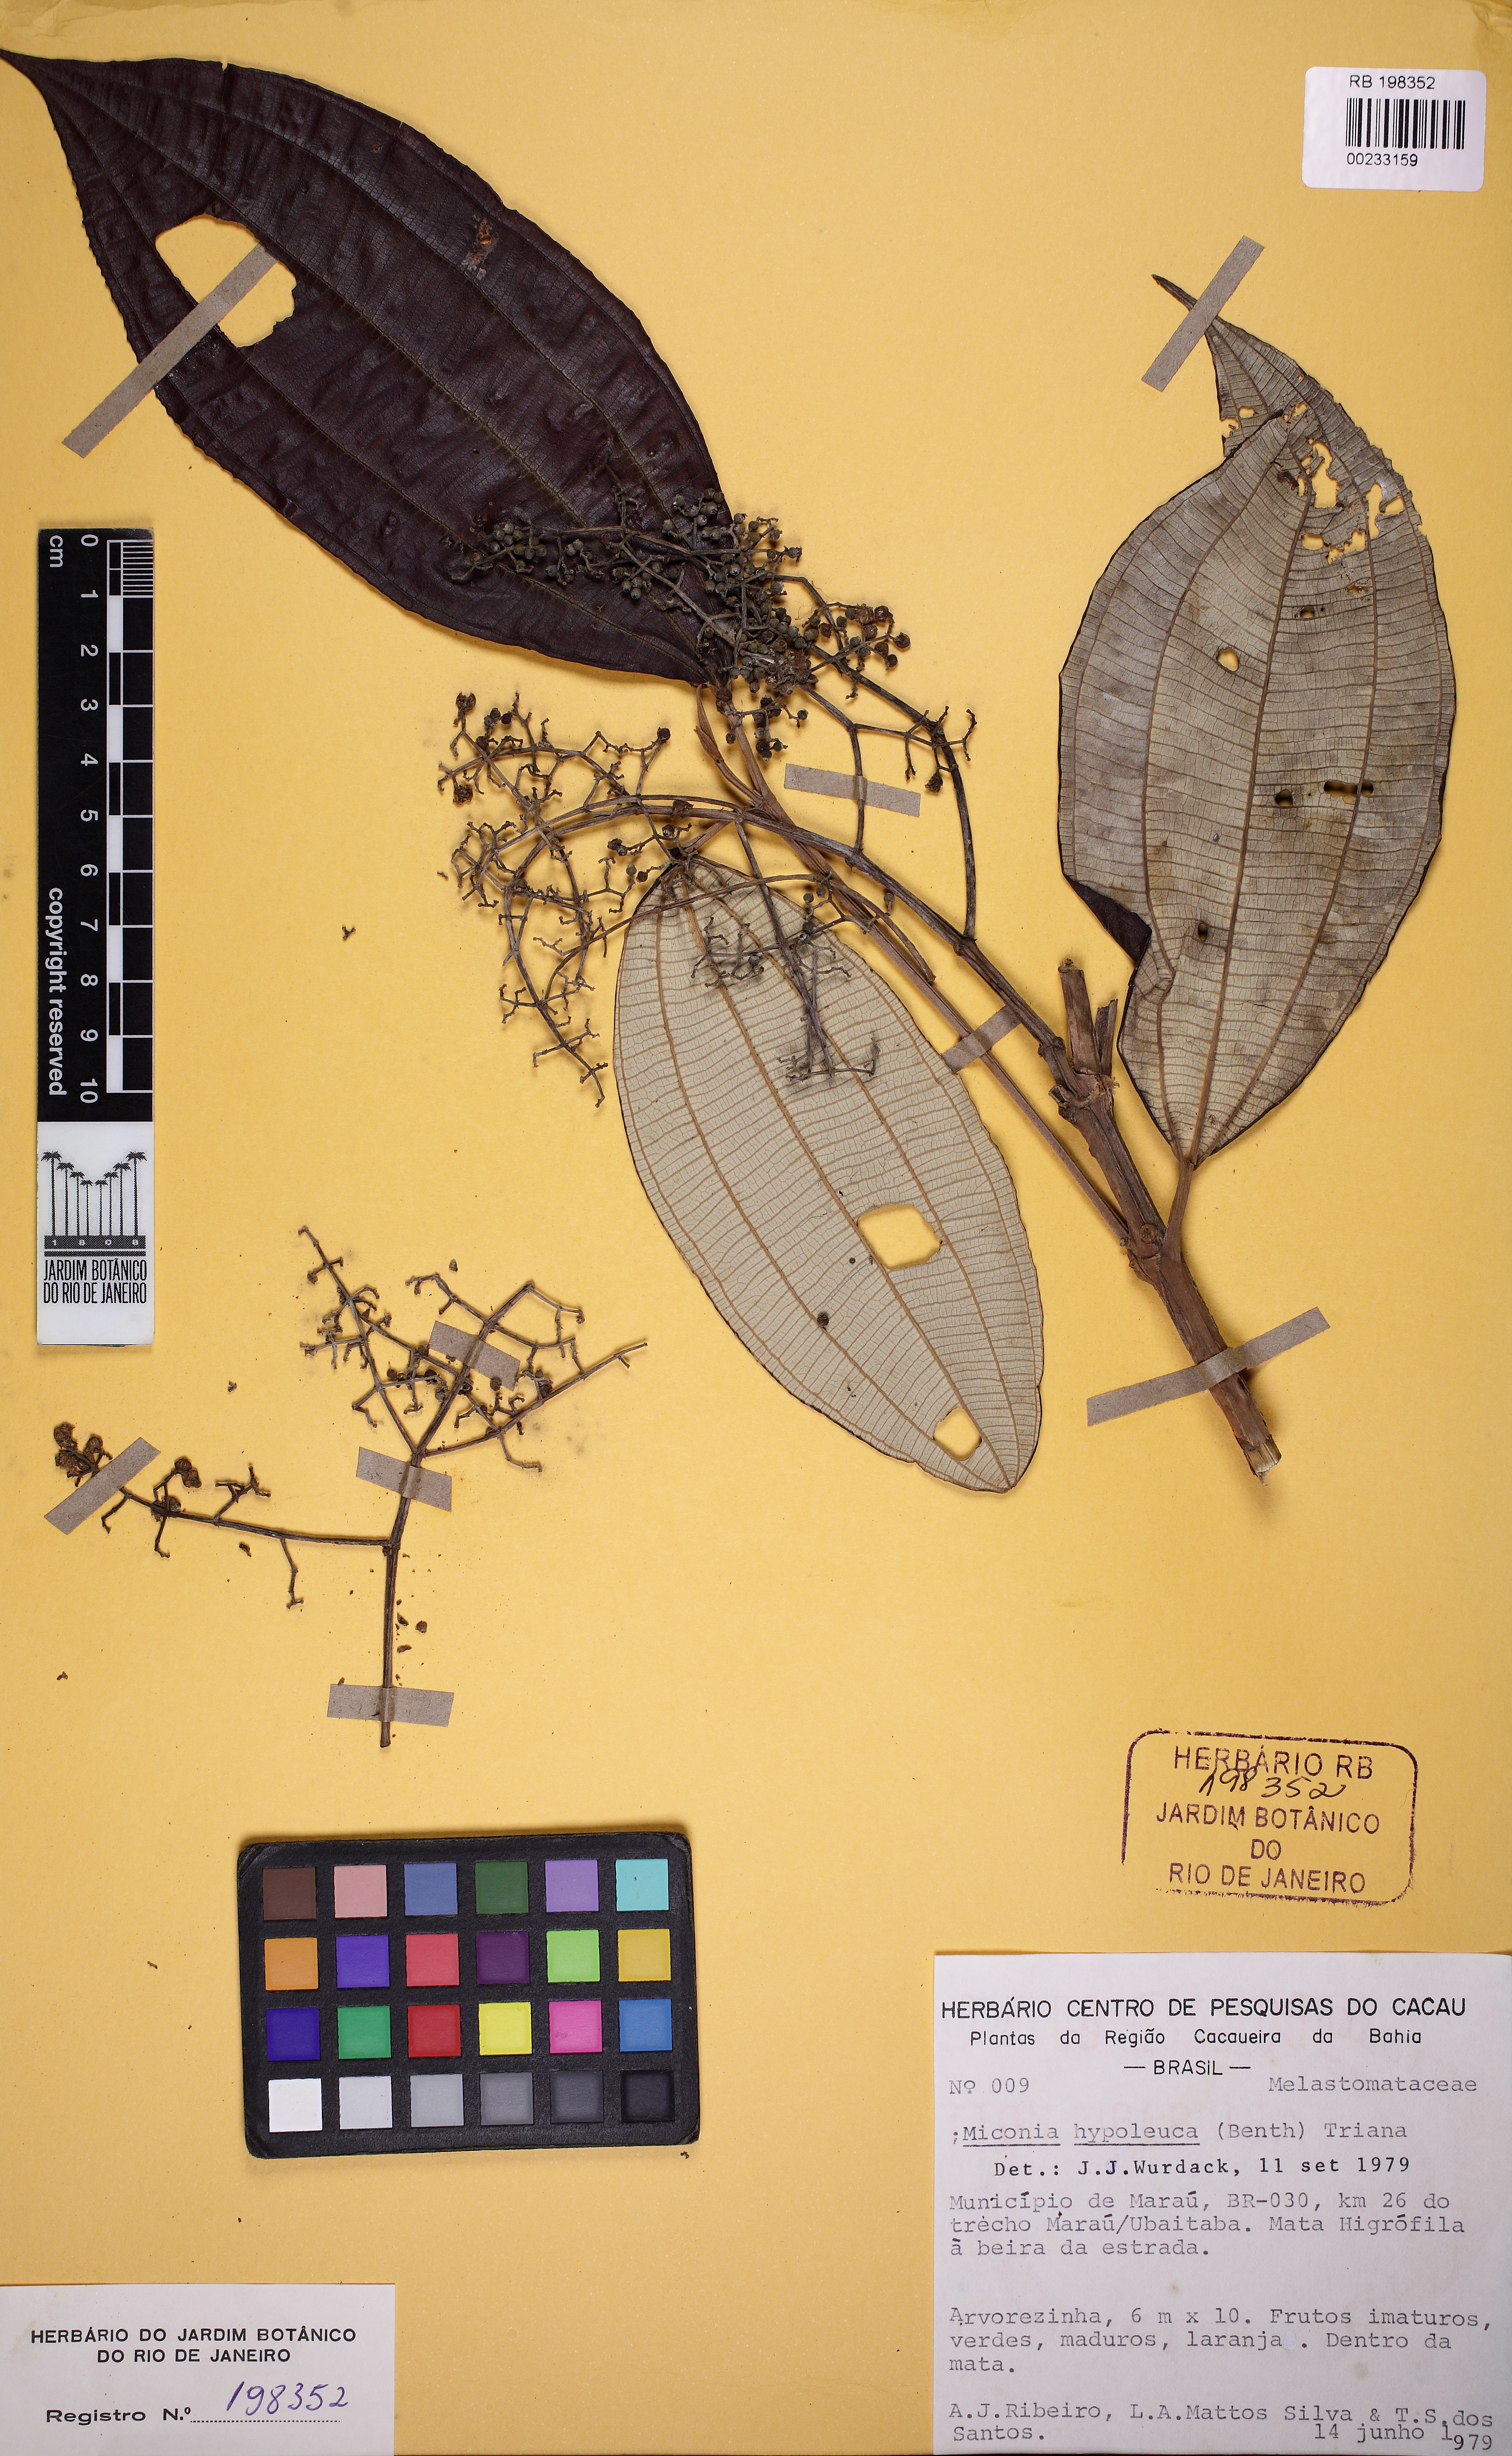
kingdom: Plantae
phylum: Tracheophyta
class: Magnoliopsida
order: Myrtales
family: Melastomataceae
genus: Miconia
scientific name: Miconia hypoleuca
